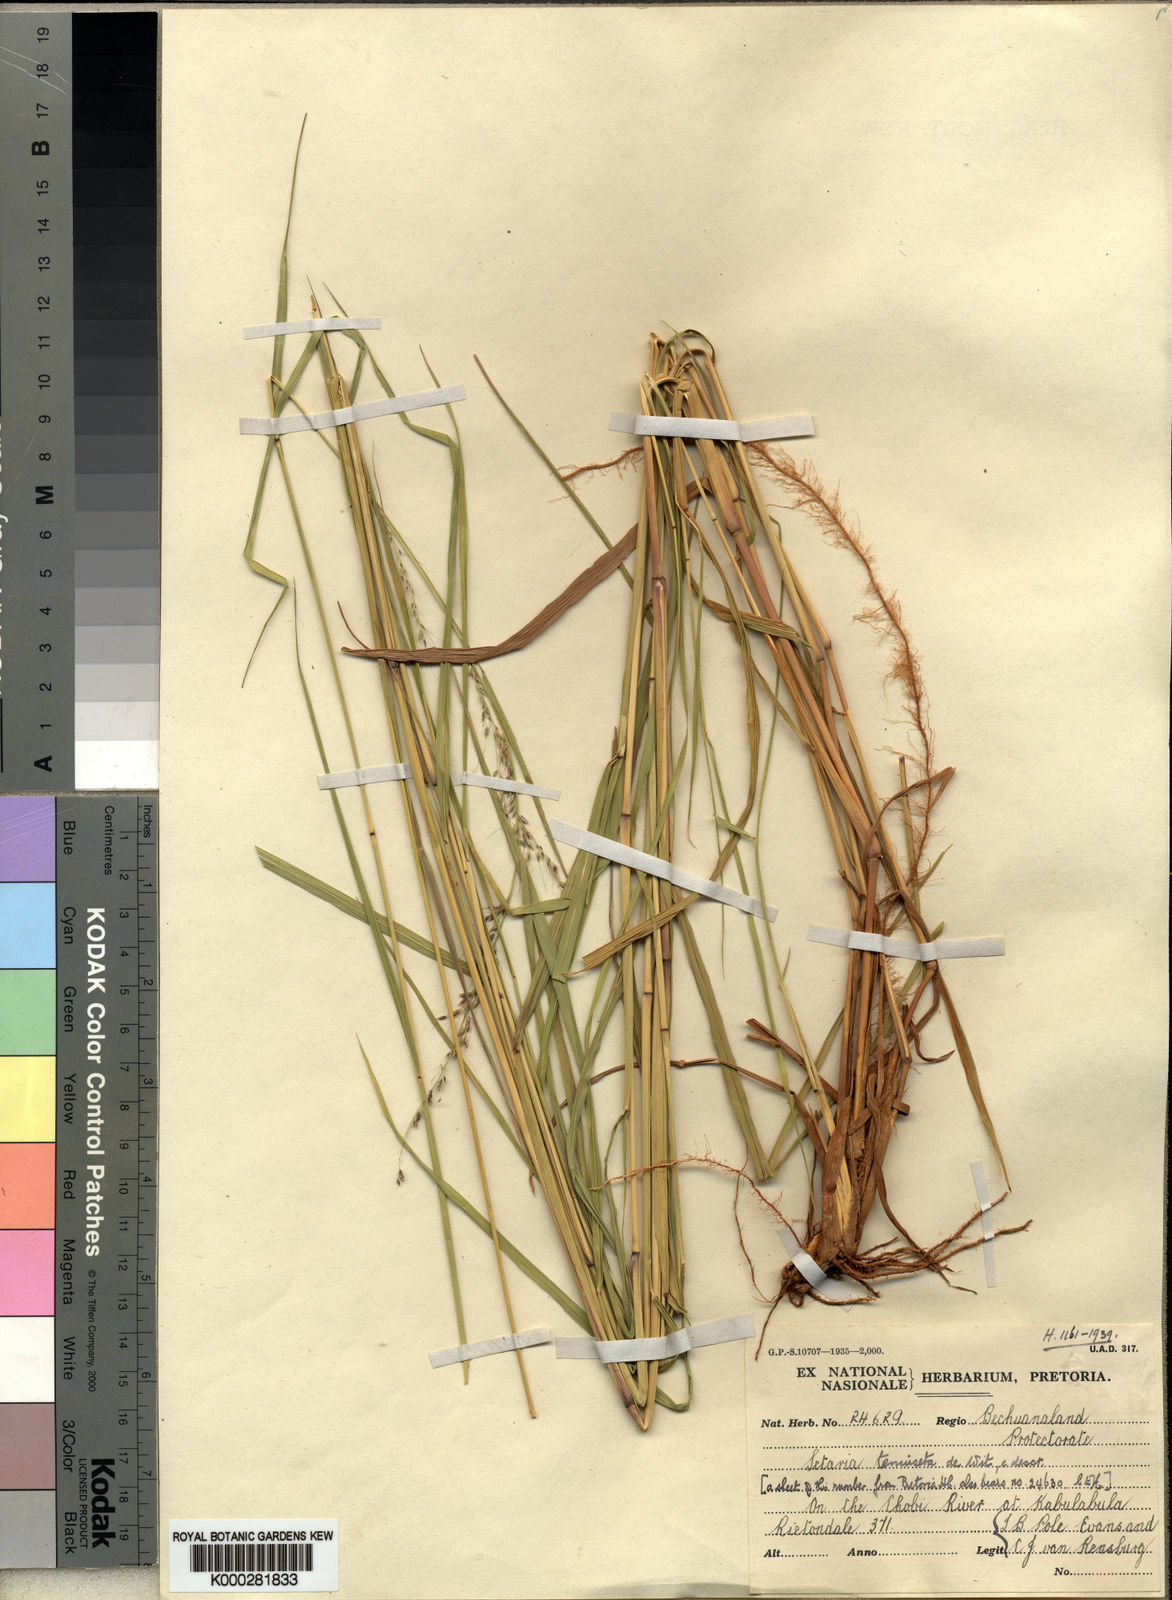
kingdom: Plantae
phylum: Tracheophyta
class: Liliopsida
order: Poales
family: Poaceae
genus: Setaria
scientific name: Setaria pseudaristata
